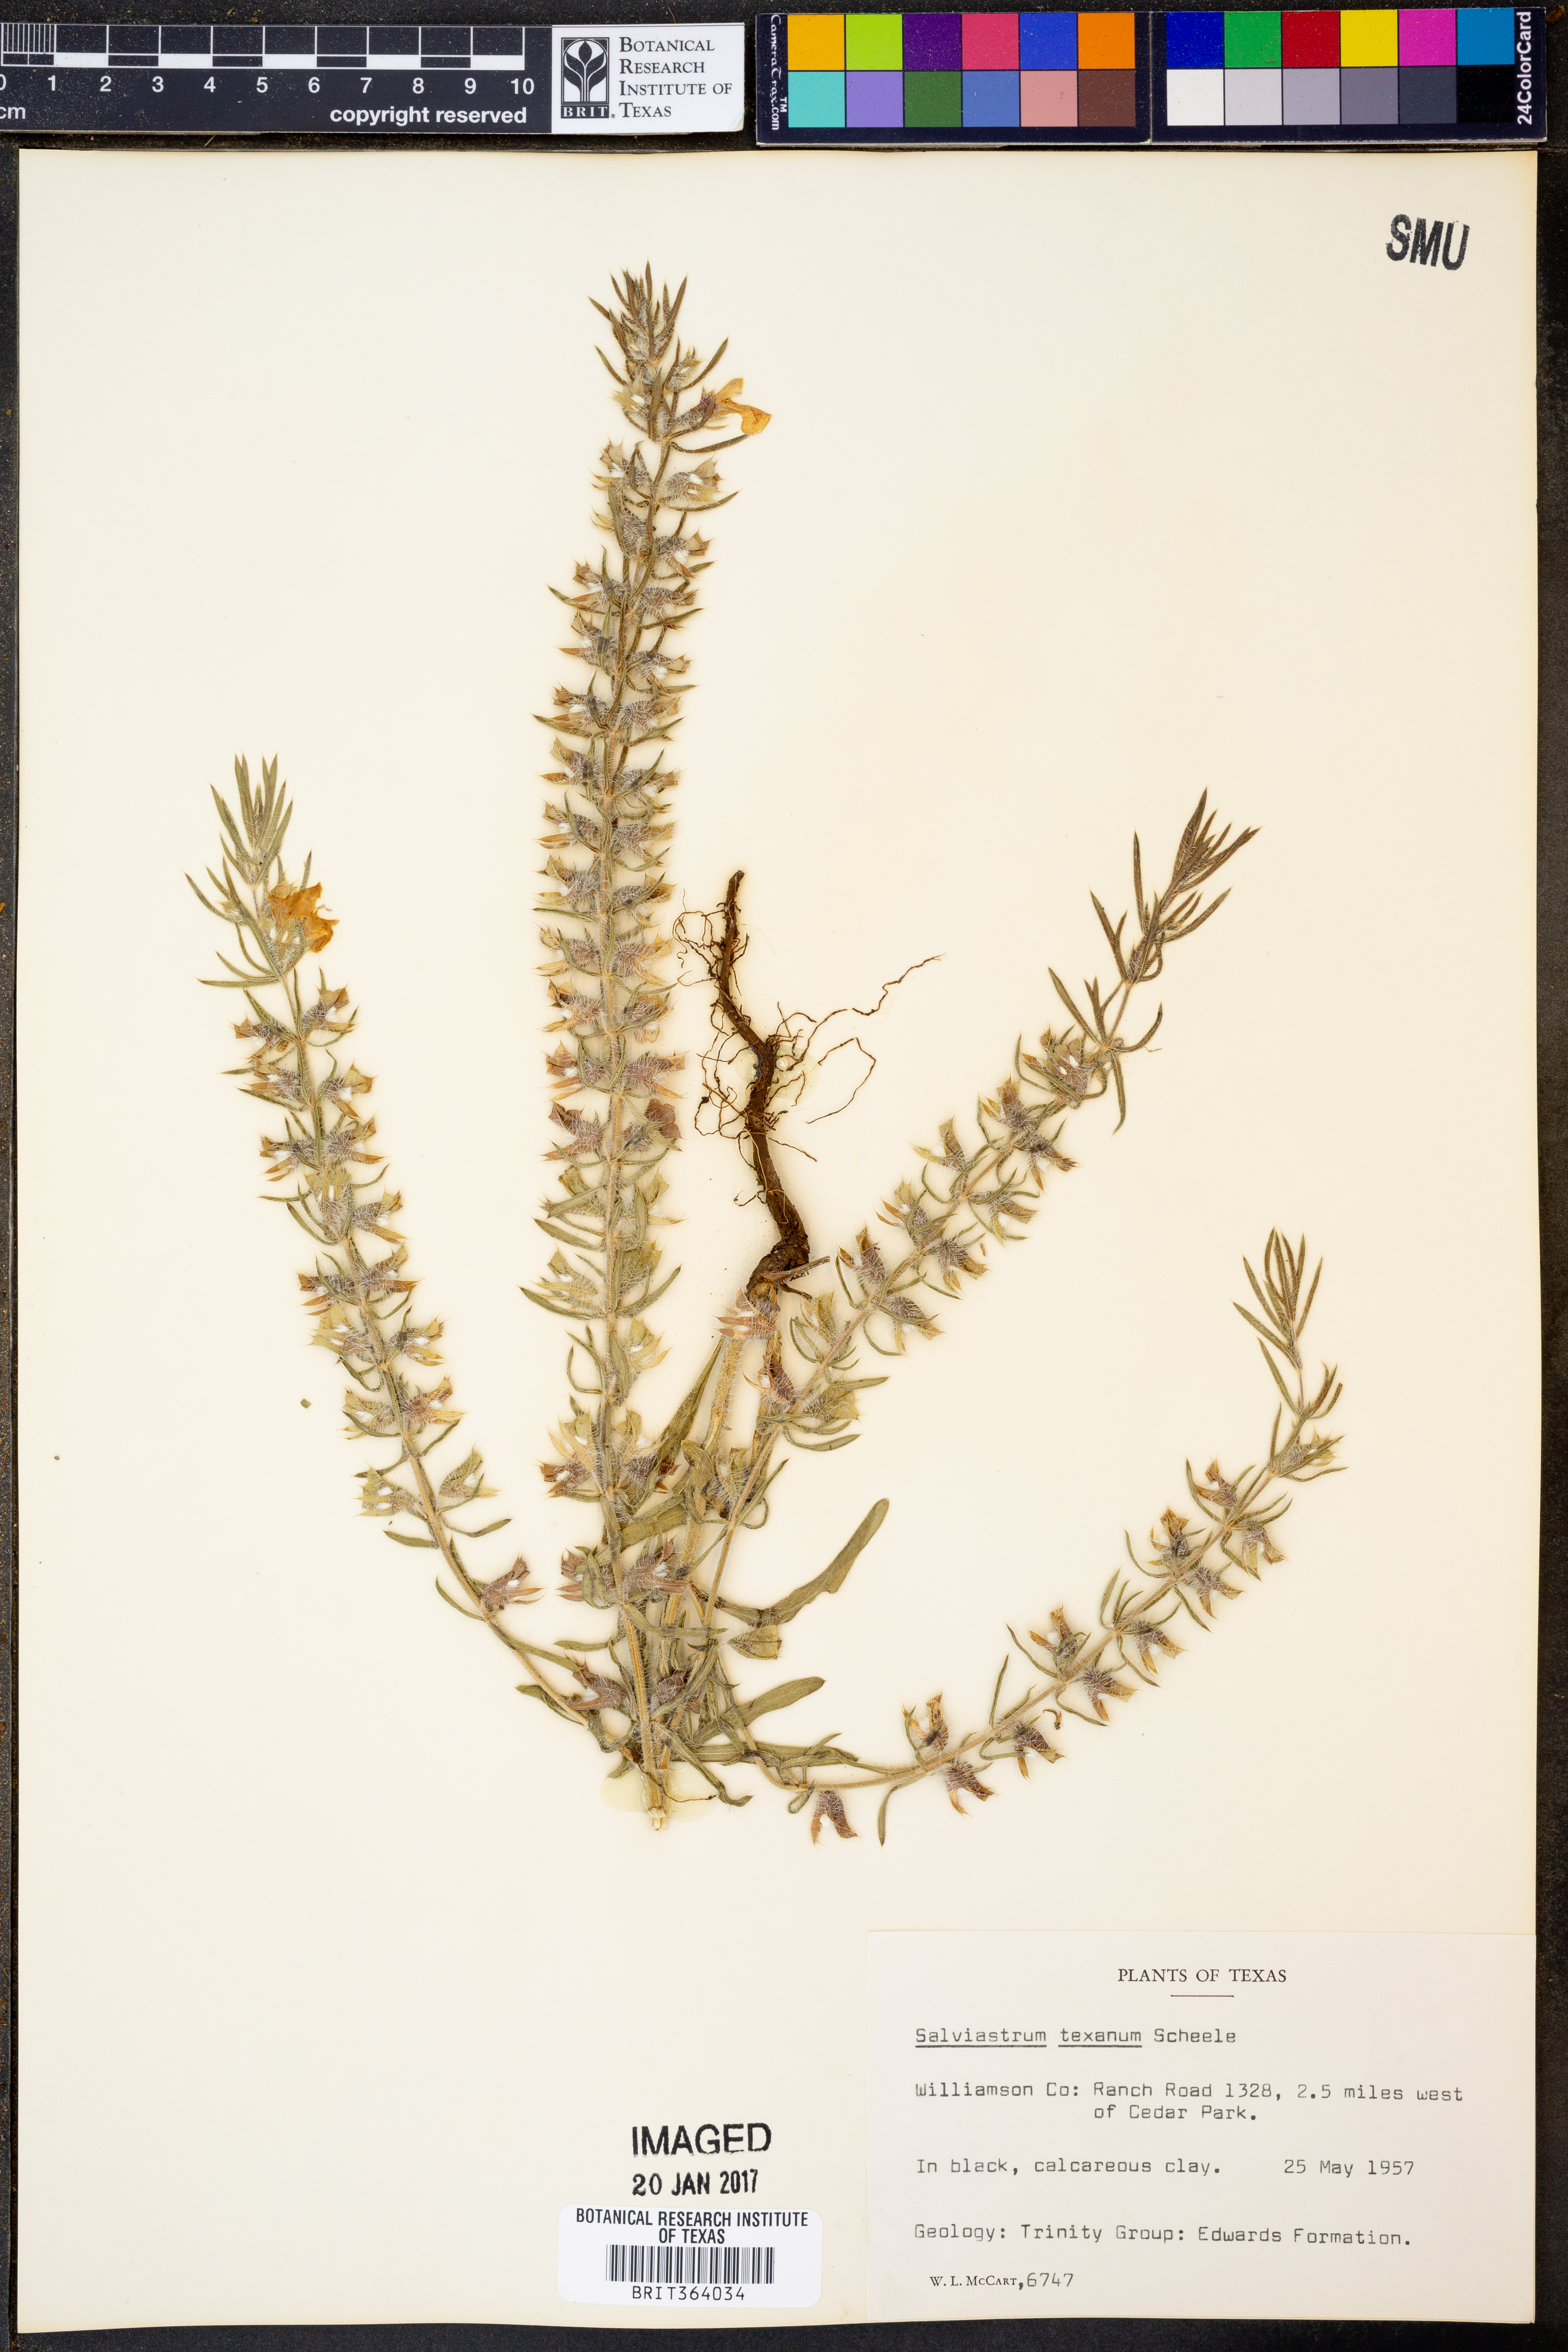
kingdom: Plantae
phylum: Tracheophyta
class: Magnoliopsida
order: Lamiales
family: Lamiaceae
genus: Salvia
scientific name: Salvia texana
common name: Texas sage
